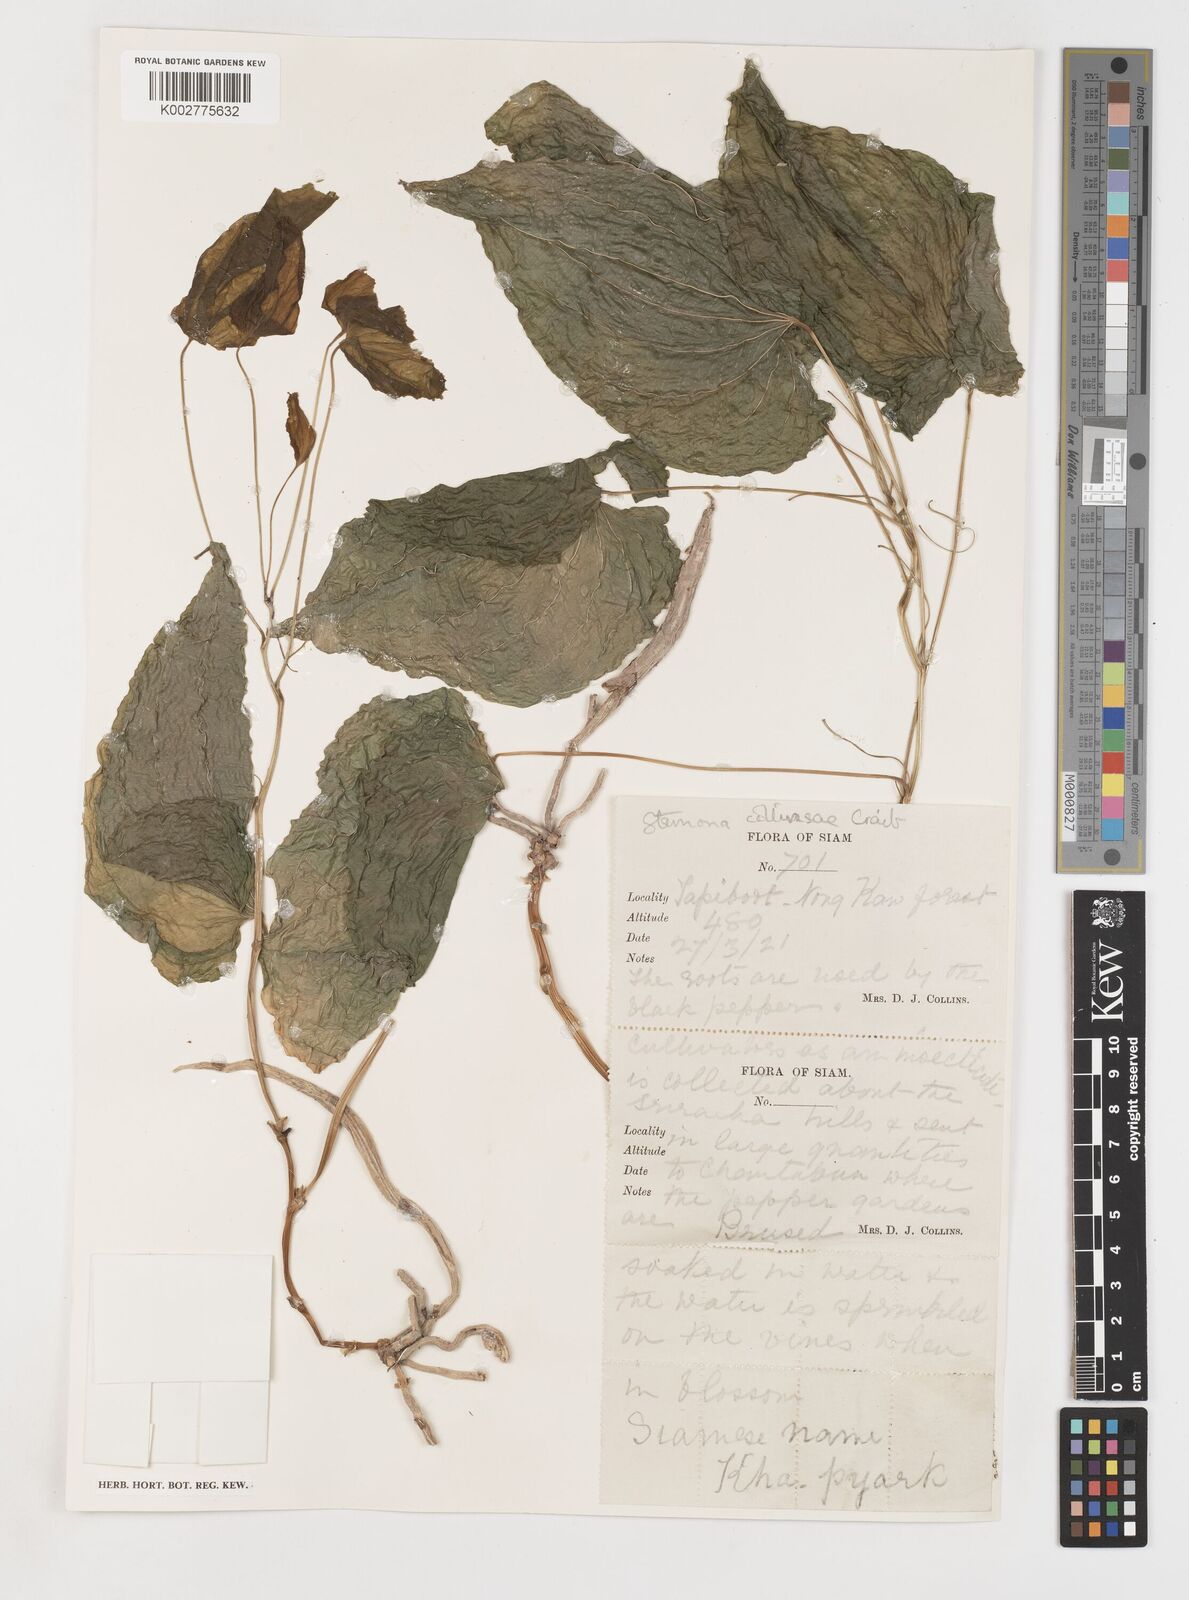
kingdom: Plantae
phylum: Tracheophyta
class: Liliopsida
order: Pandanales
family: Stemonaceae
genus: Stemona
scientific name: Stemona collinsiae
